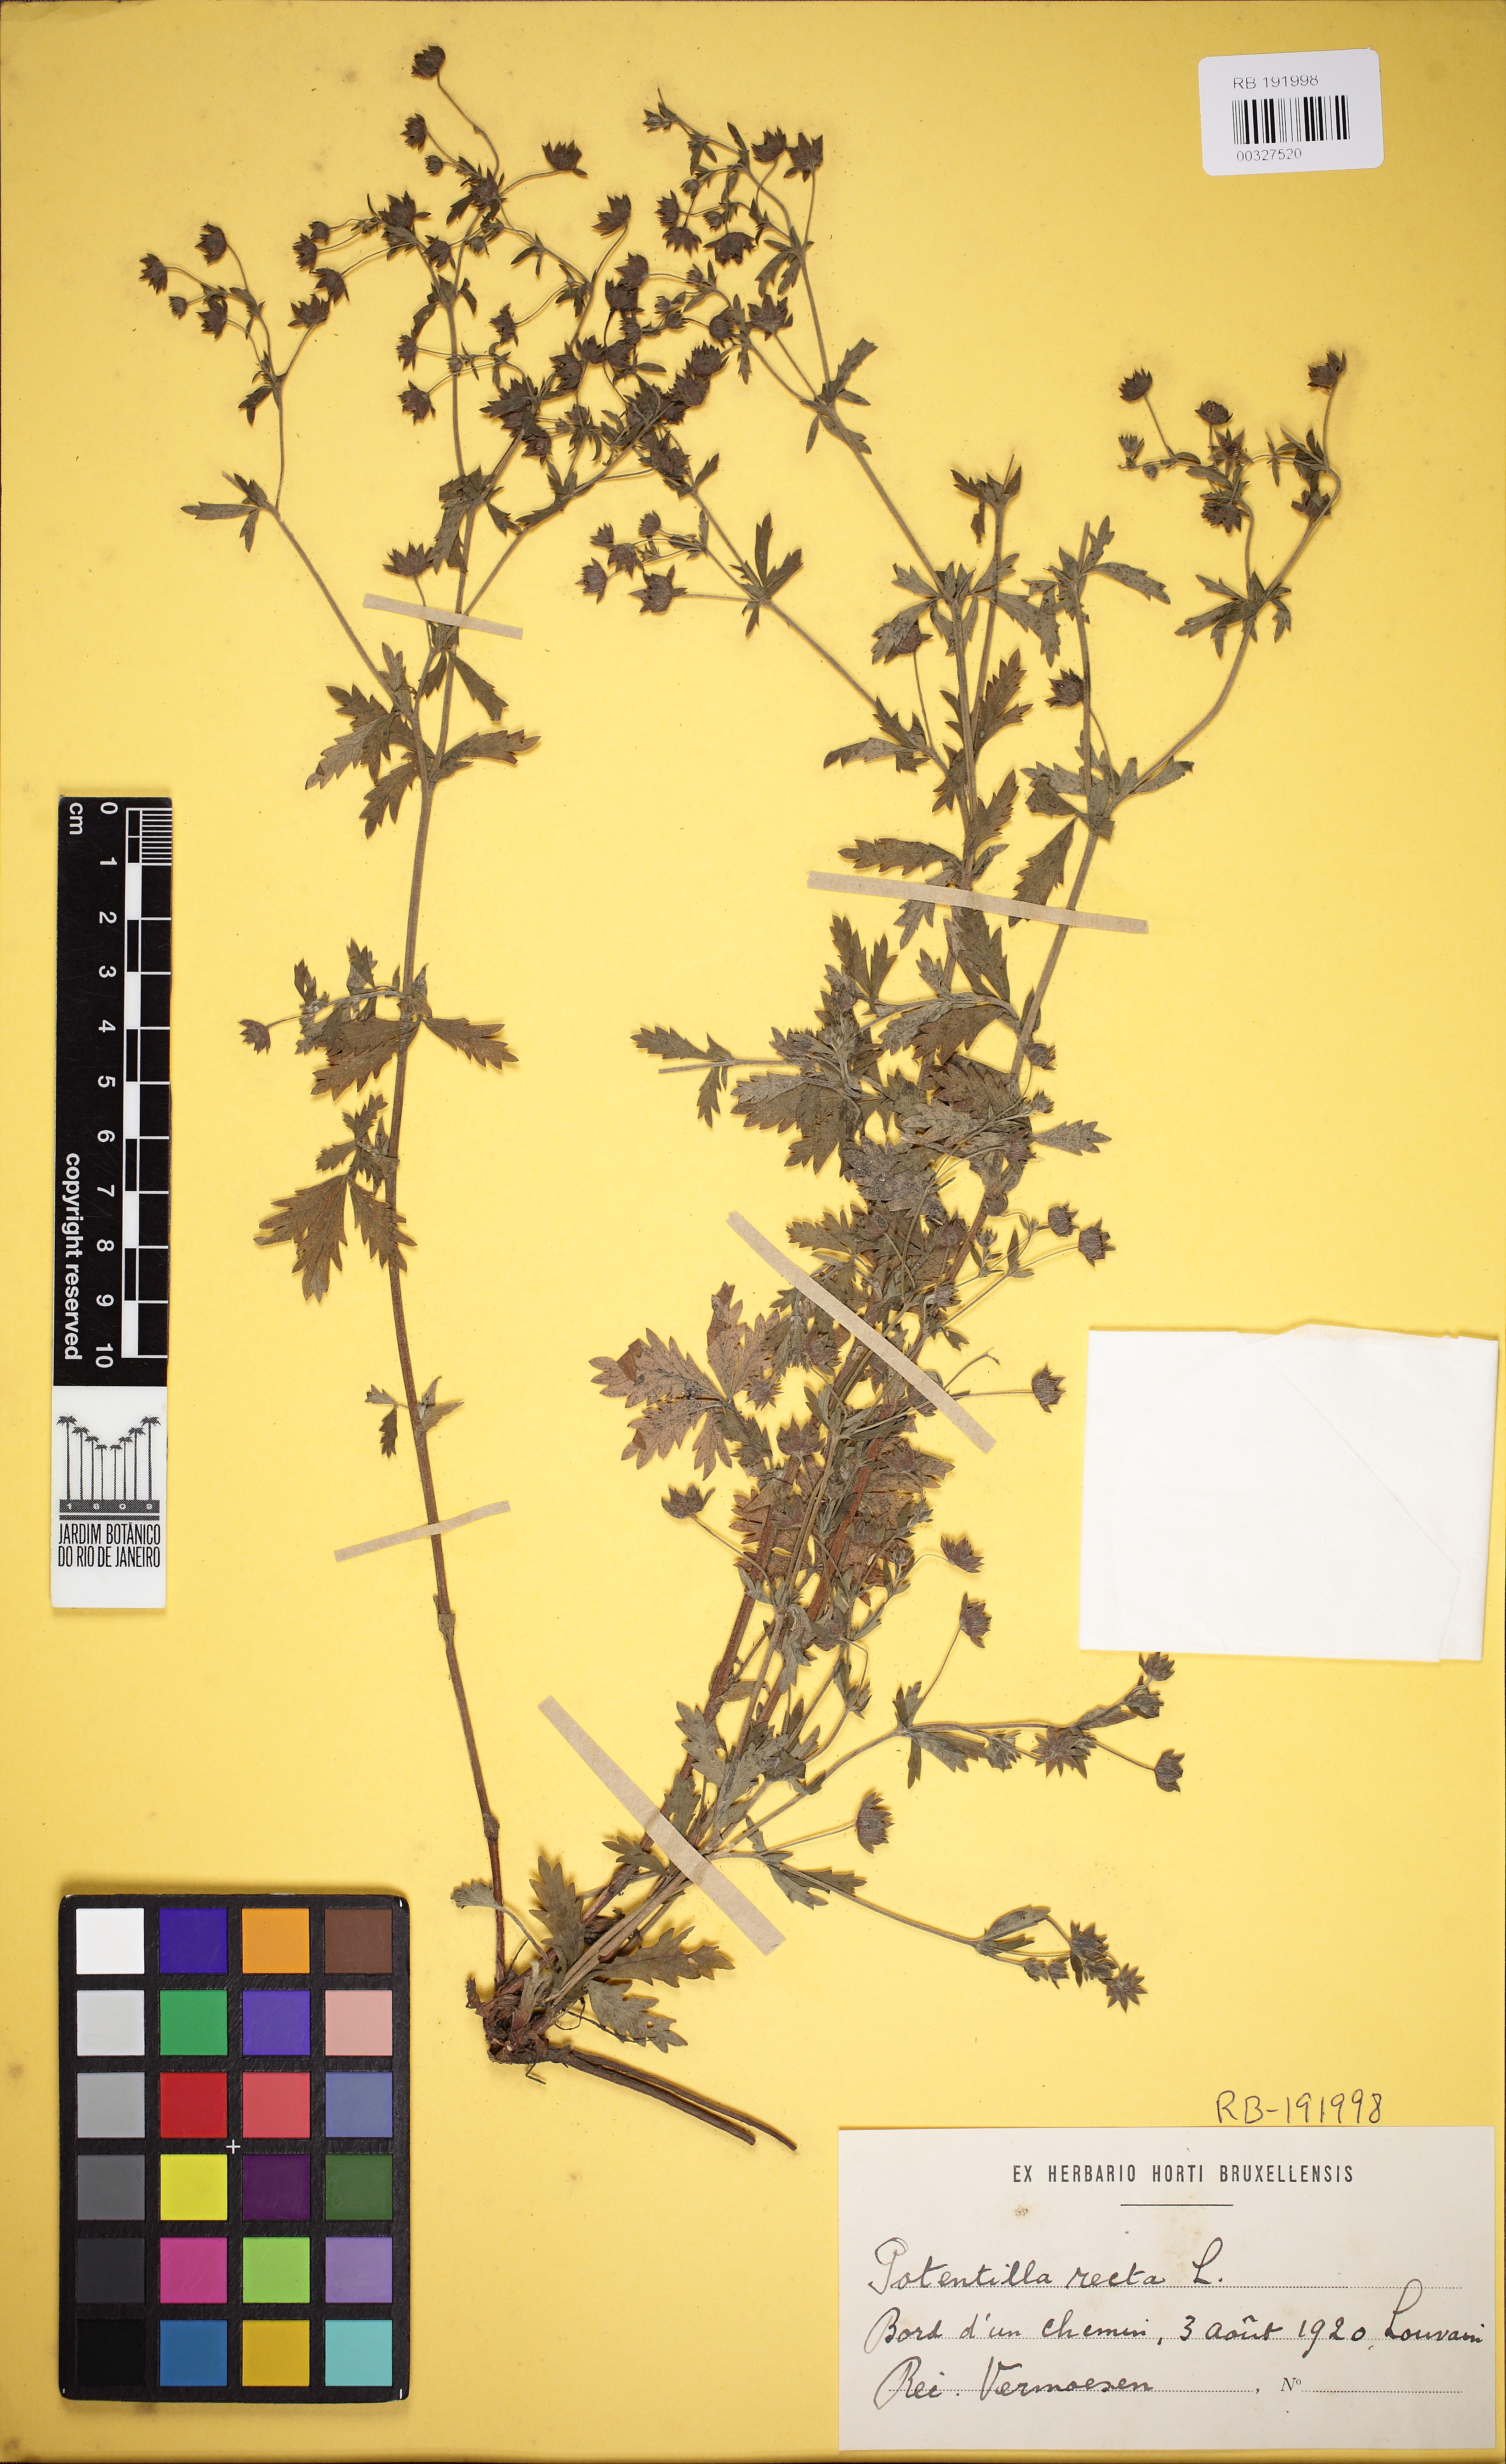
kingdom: Plantae
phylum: Tracheophyta
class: Magnoliopsida
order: Rosales
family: Rosaceae
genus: Potentilla
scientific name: Potentilla recta
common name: Sulphur cinquefoil
